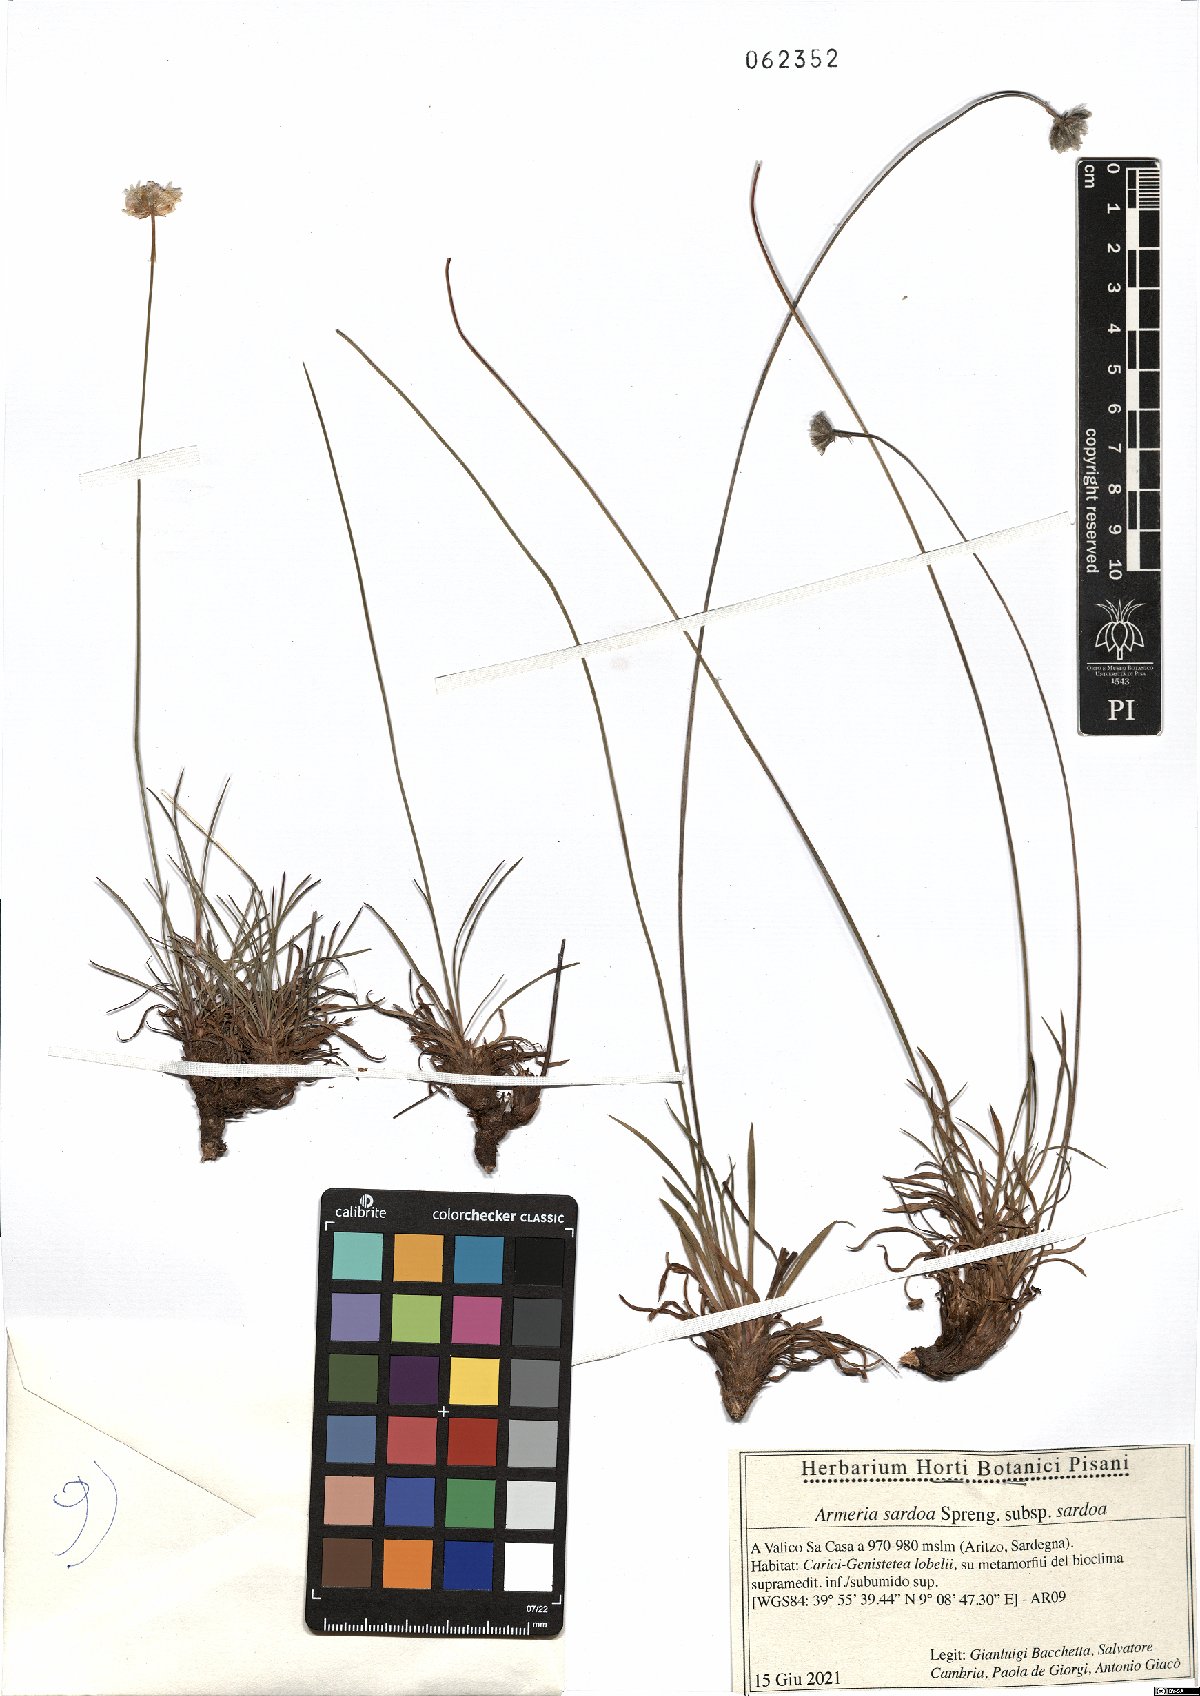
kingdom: Plantae
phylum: Tracheophyta
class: Magnoliopsida
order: Caryophyllales
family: Plumbaginaceae
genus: Armeria
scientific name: Armeria sardoa
